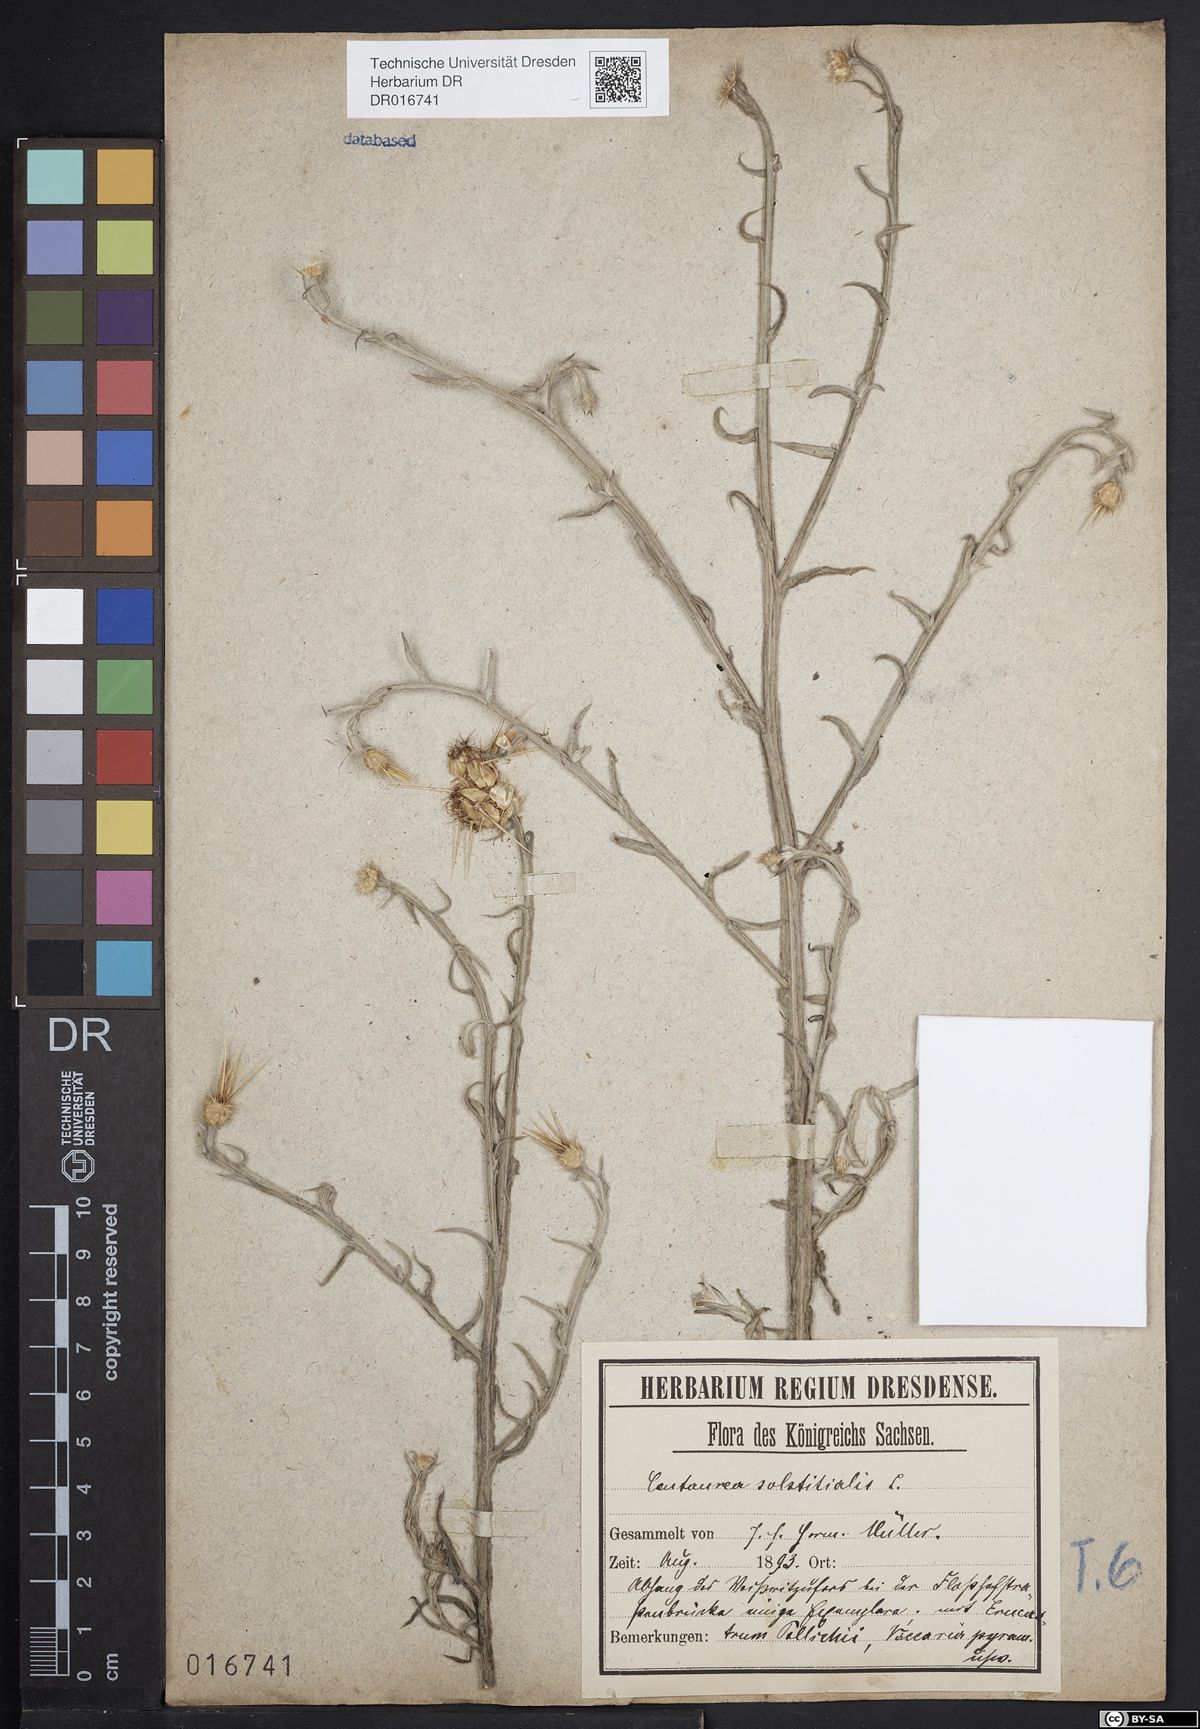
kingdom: Plantae
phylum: Tracheophyta
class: Magnoliopsida
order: Asterales
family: Asteraceae
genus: Centaurea
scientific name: Centaurea solstitialis
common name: Yellow star-thistle
